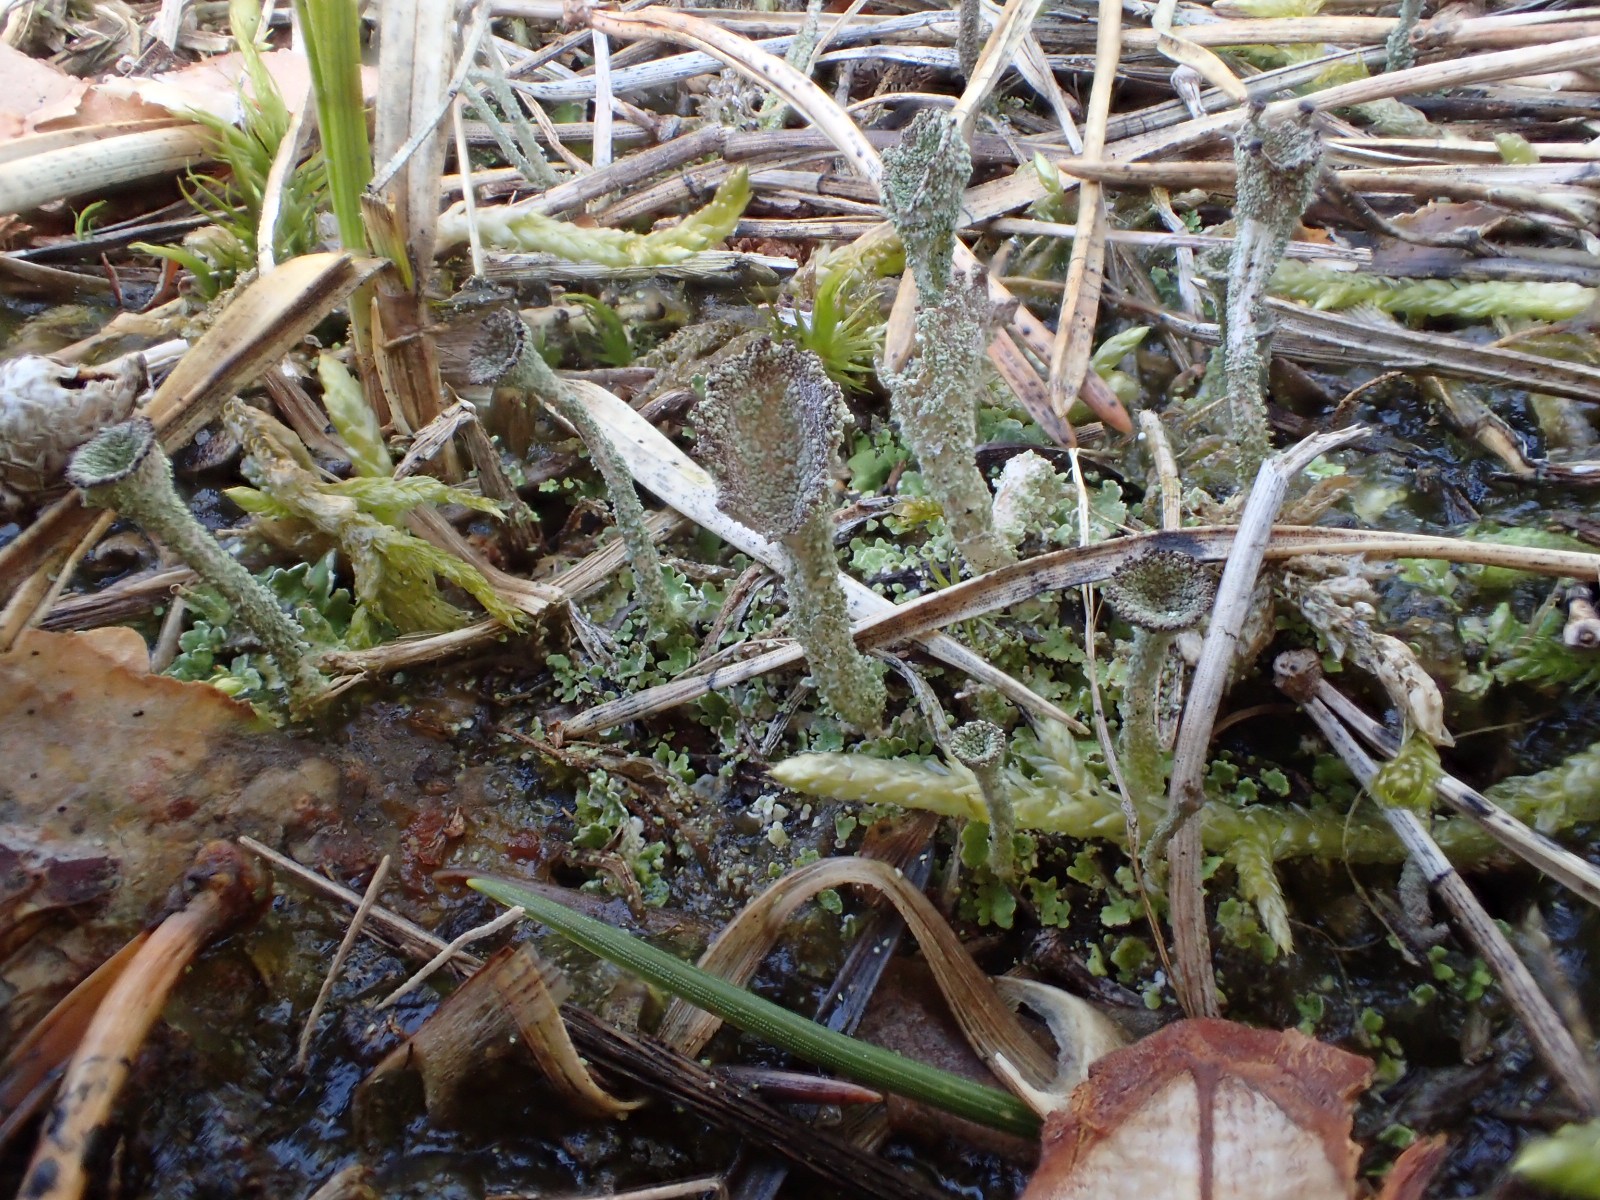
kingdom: Fungi
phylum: Ascomycota
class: Lecanoromycetes
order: Lecanorales
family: Cladoniaceae
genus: Cladonia
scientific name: Cladonia
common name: brungrøn bægerlav
